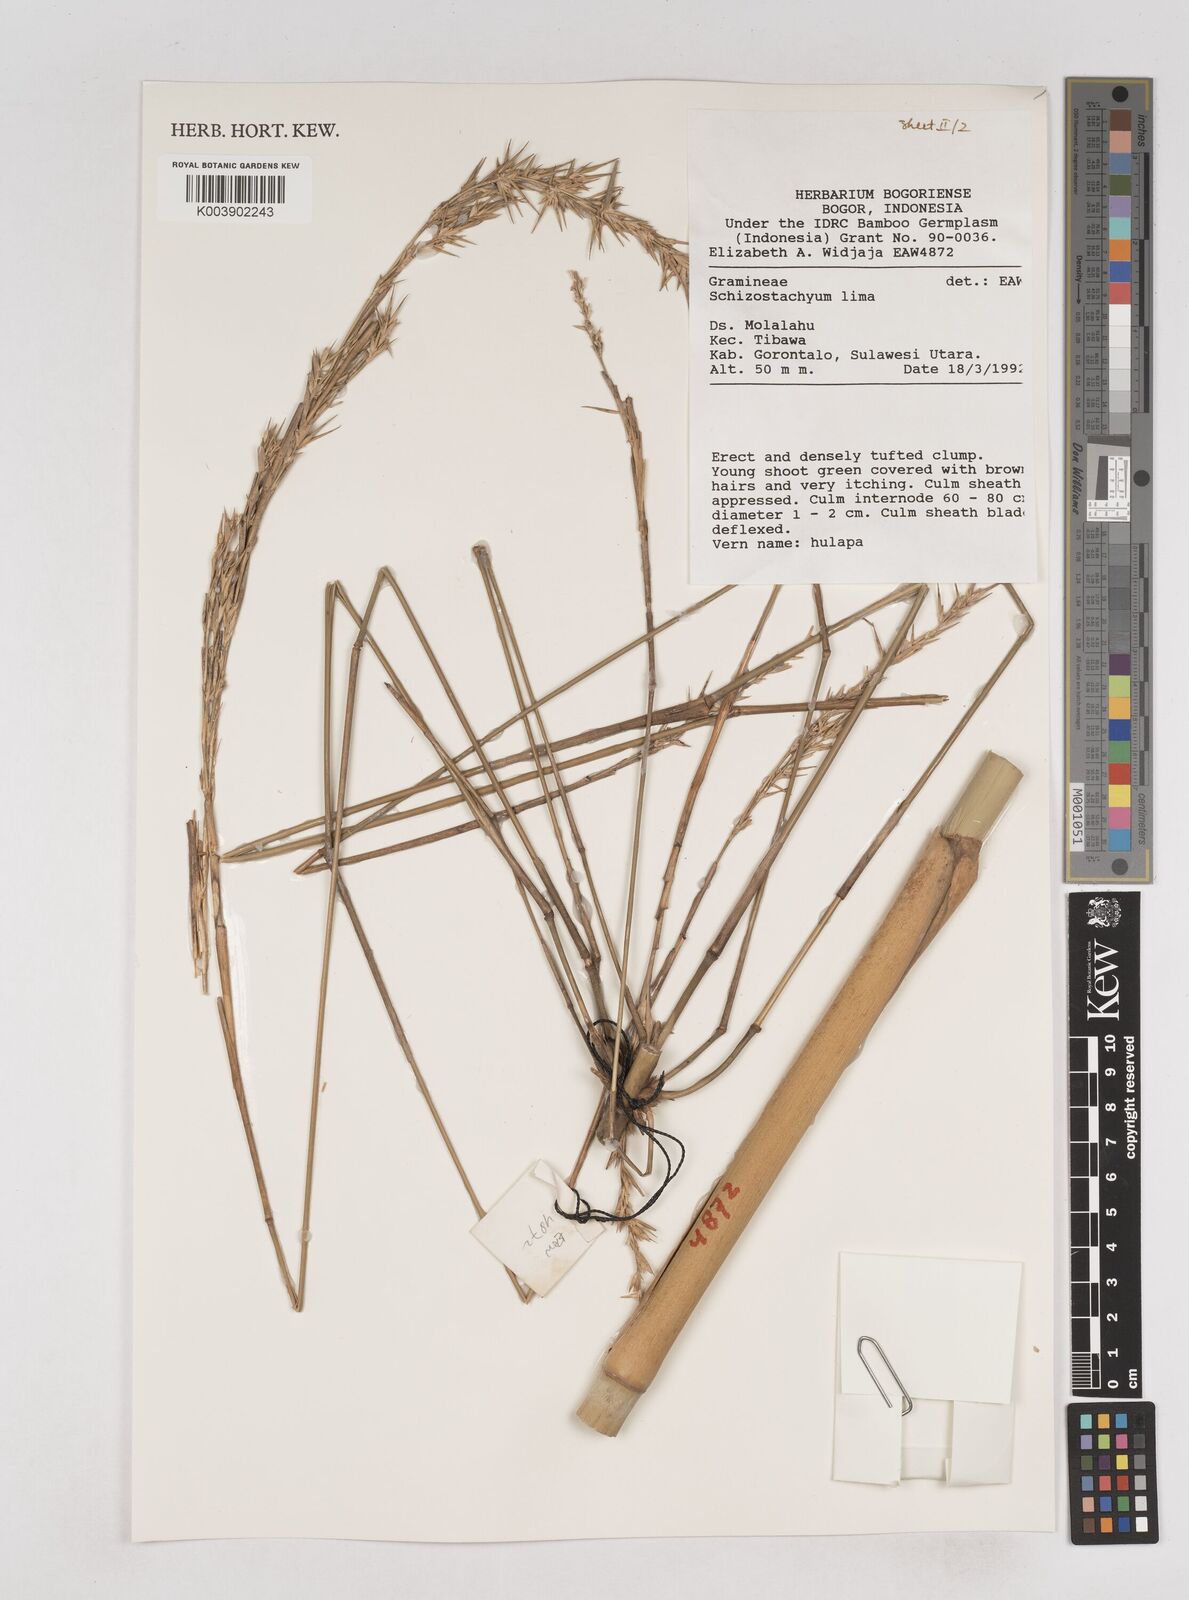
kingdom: Plantae
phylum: Tracheophyta
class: Liliopsida
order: Poales
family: Poaceae
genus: Schizostachyum
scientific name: Schizostachyum lima
